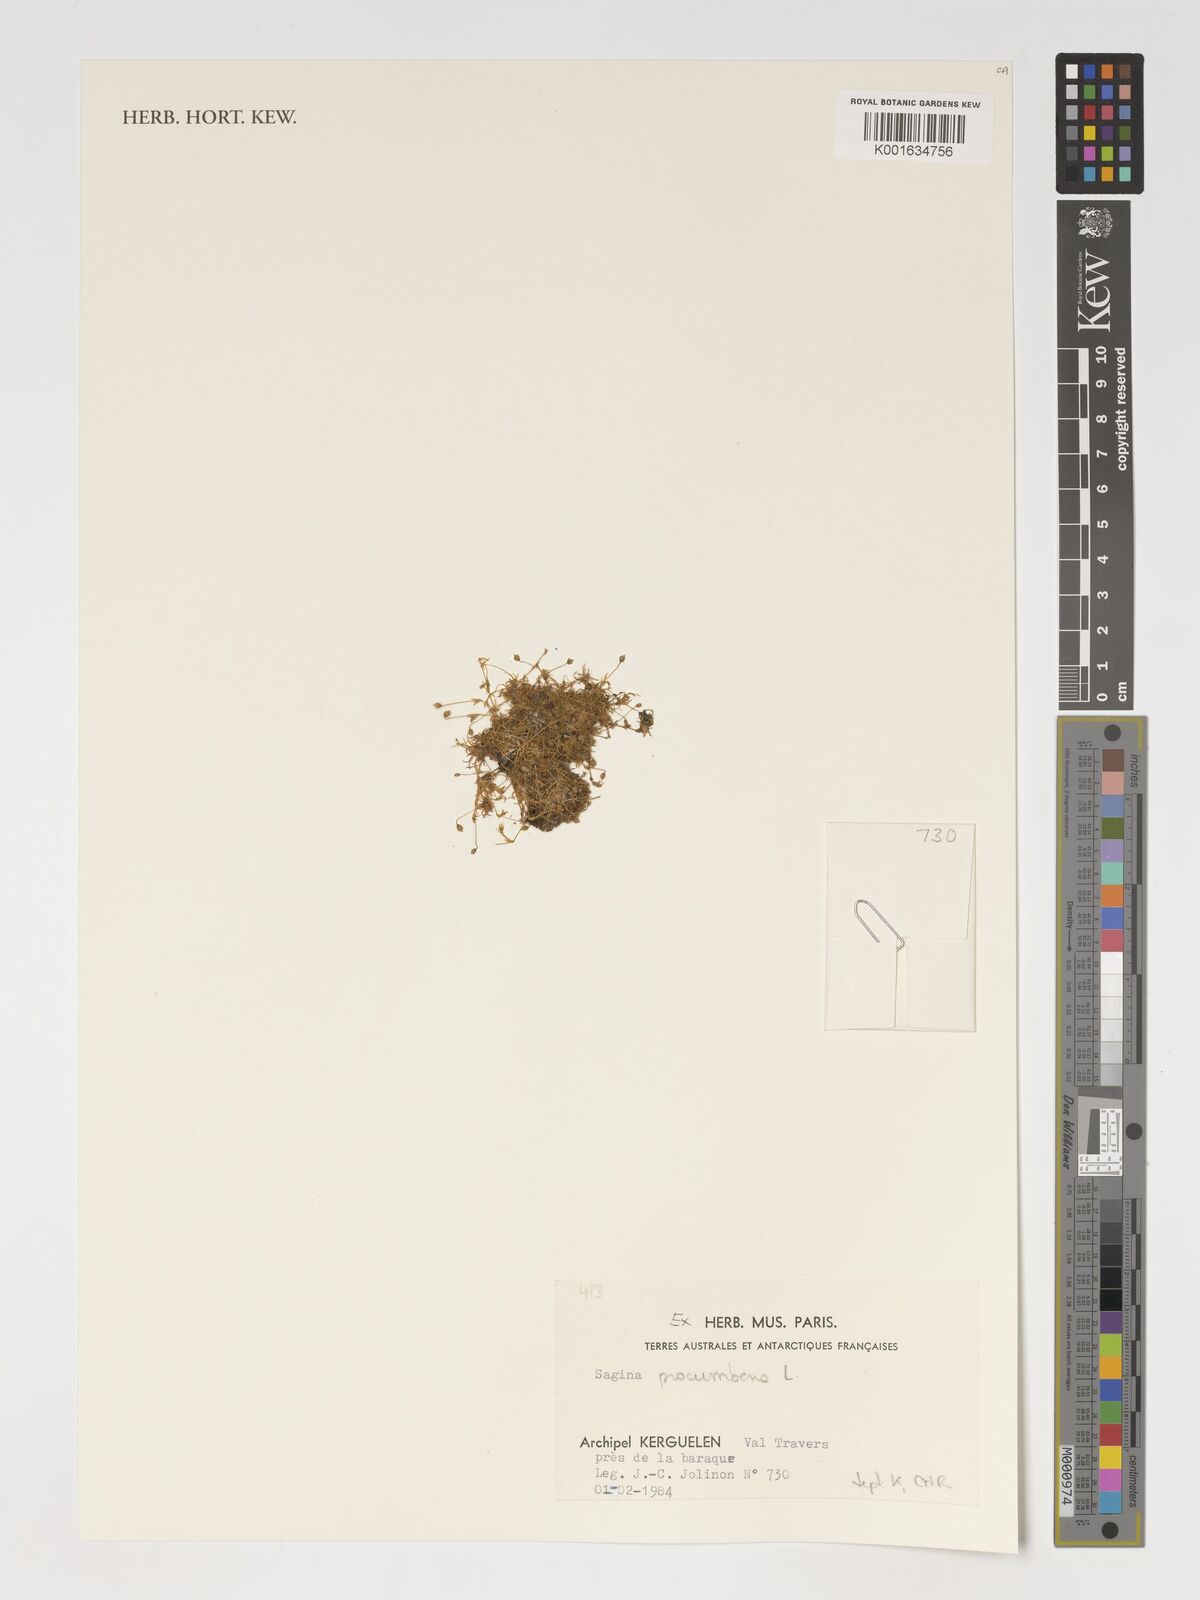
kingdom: Plantae
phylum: Tracheophyta
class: Magnoliopsida
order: Caryophyllales
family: Caryophyllaceae
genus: Sagina
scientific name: Sagina procumbens
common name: Procumbent pearlwort
